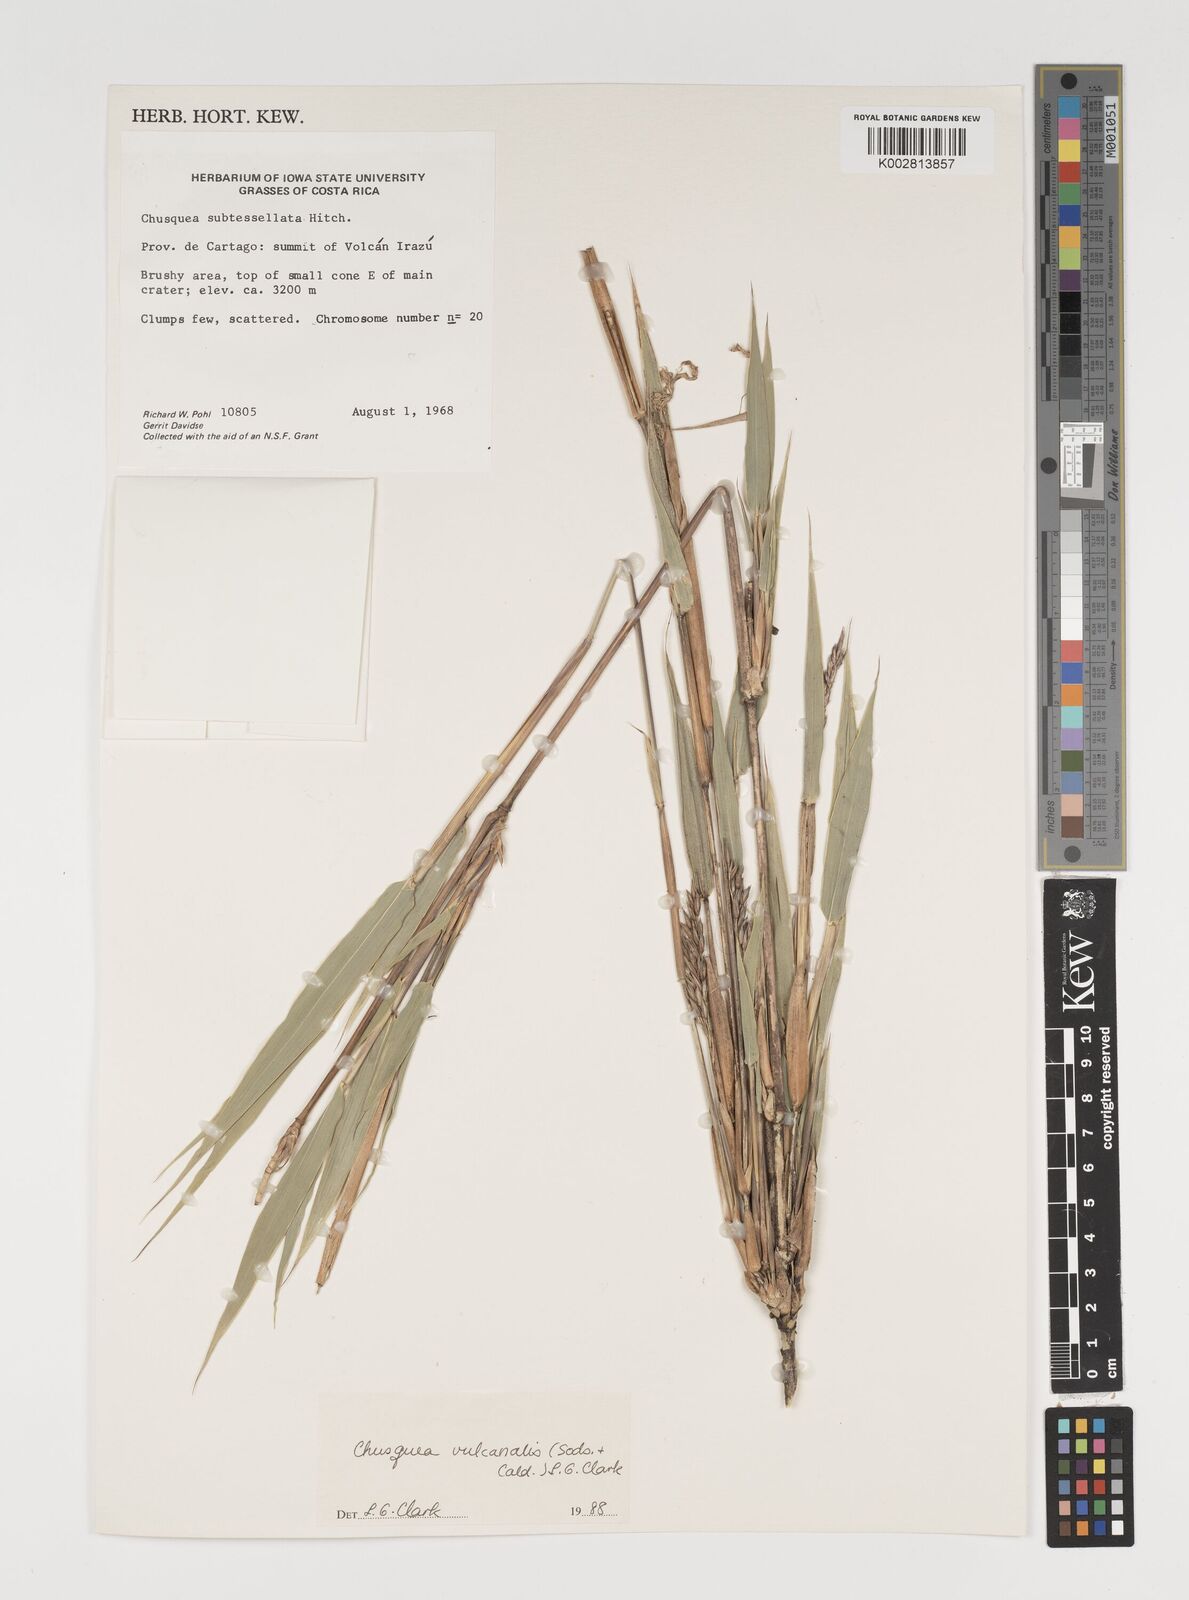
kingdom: Plantae
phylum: Tracheophyta
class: Liliopsida
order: Poales
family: Poaceae
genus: Chusquea
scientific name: Chusquea vulcanalis
